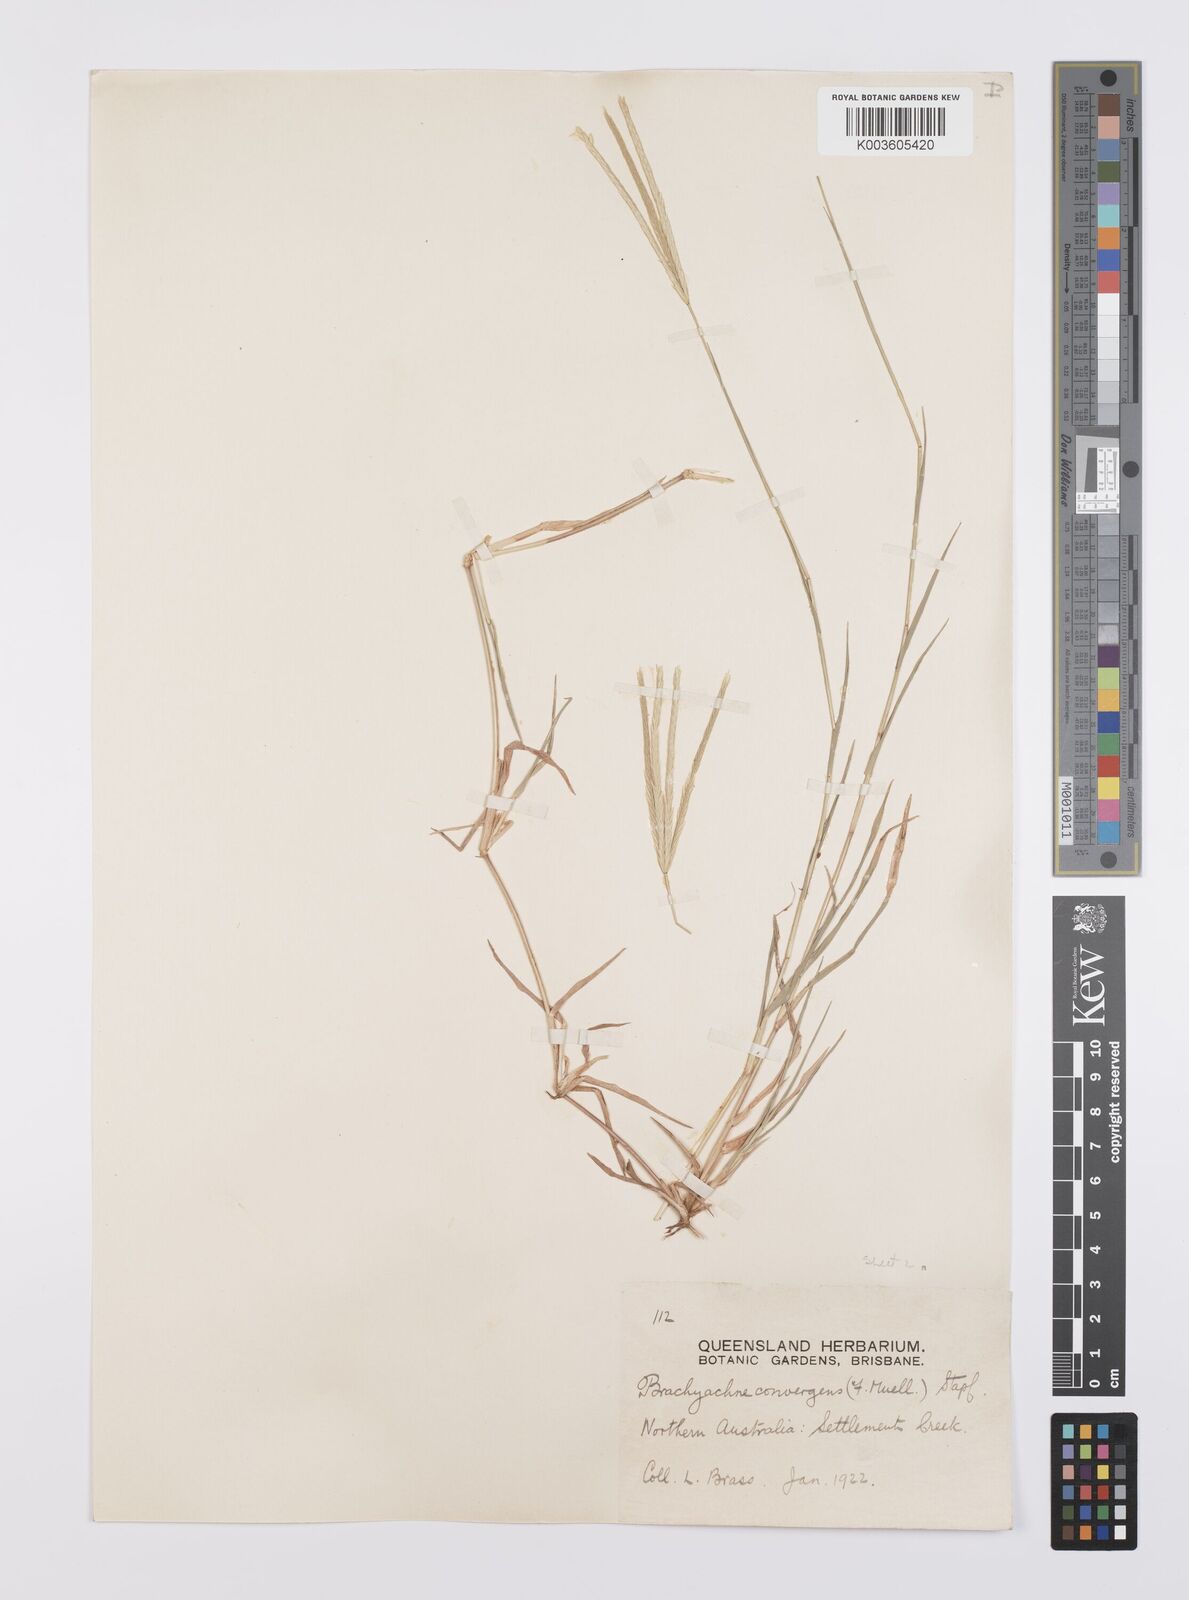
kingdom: Plantae
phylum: Tracheophyta
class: Liliopsida
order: Poales
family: Poaceae
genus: Cynodon
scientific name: Cynodon convergens
